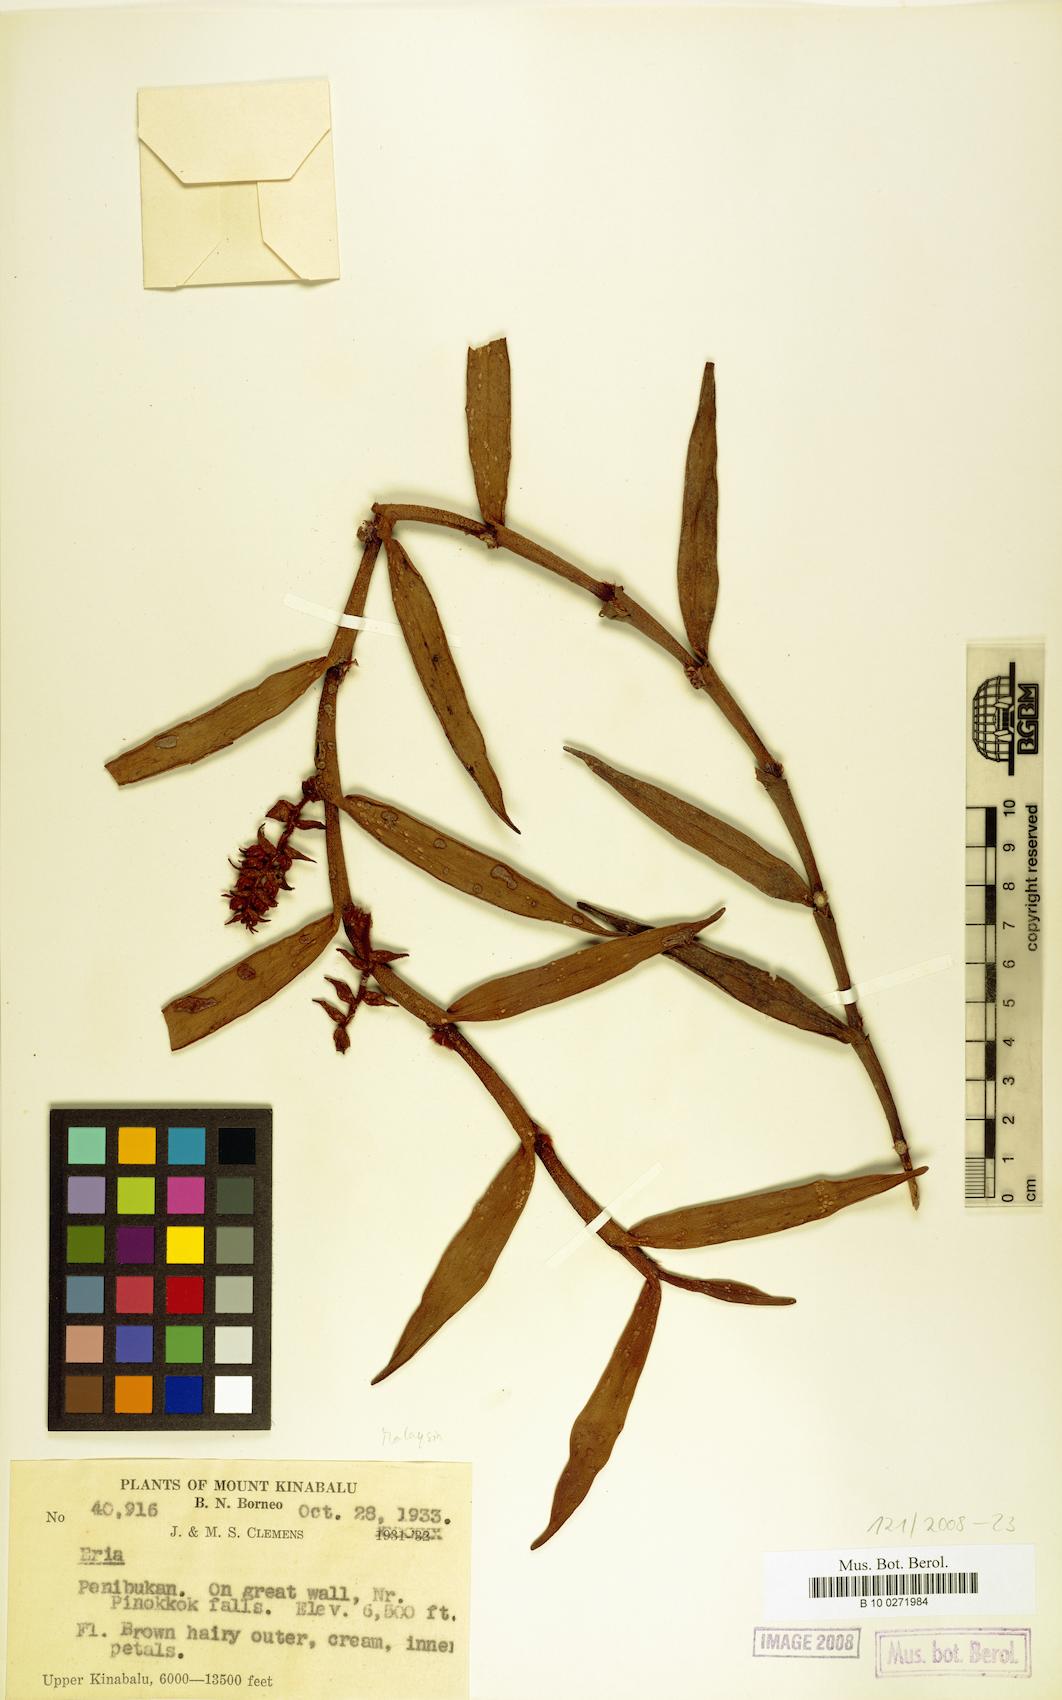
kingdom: Plantae
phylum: Tracheophyta
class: Liliopsida
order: Asparagales
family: Orchidaceae
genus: Eria
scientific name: Eria
